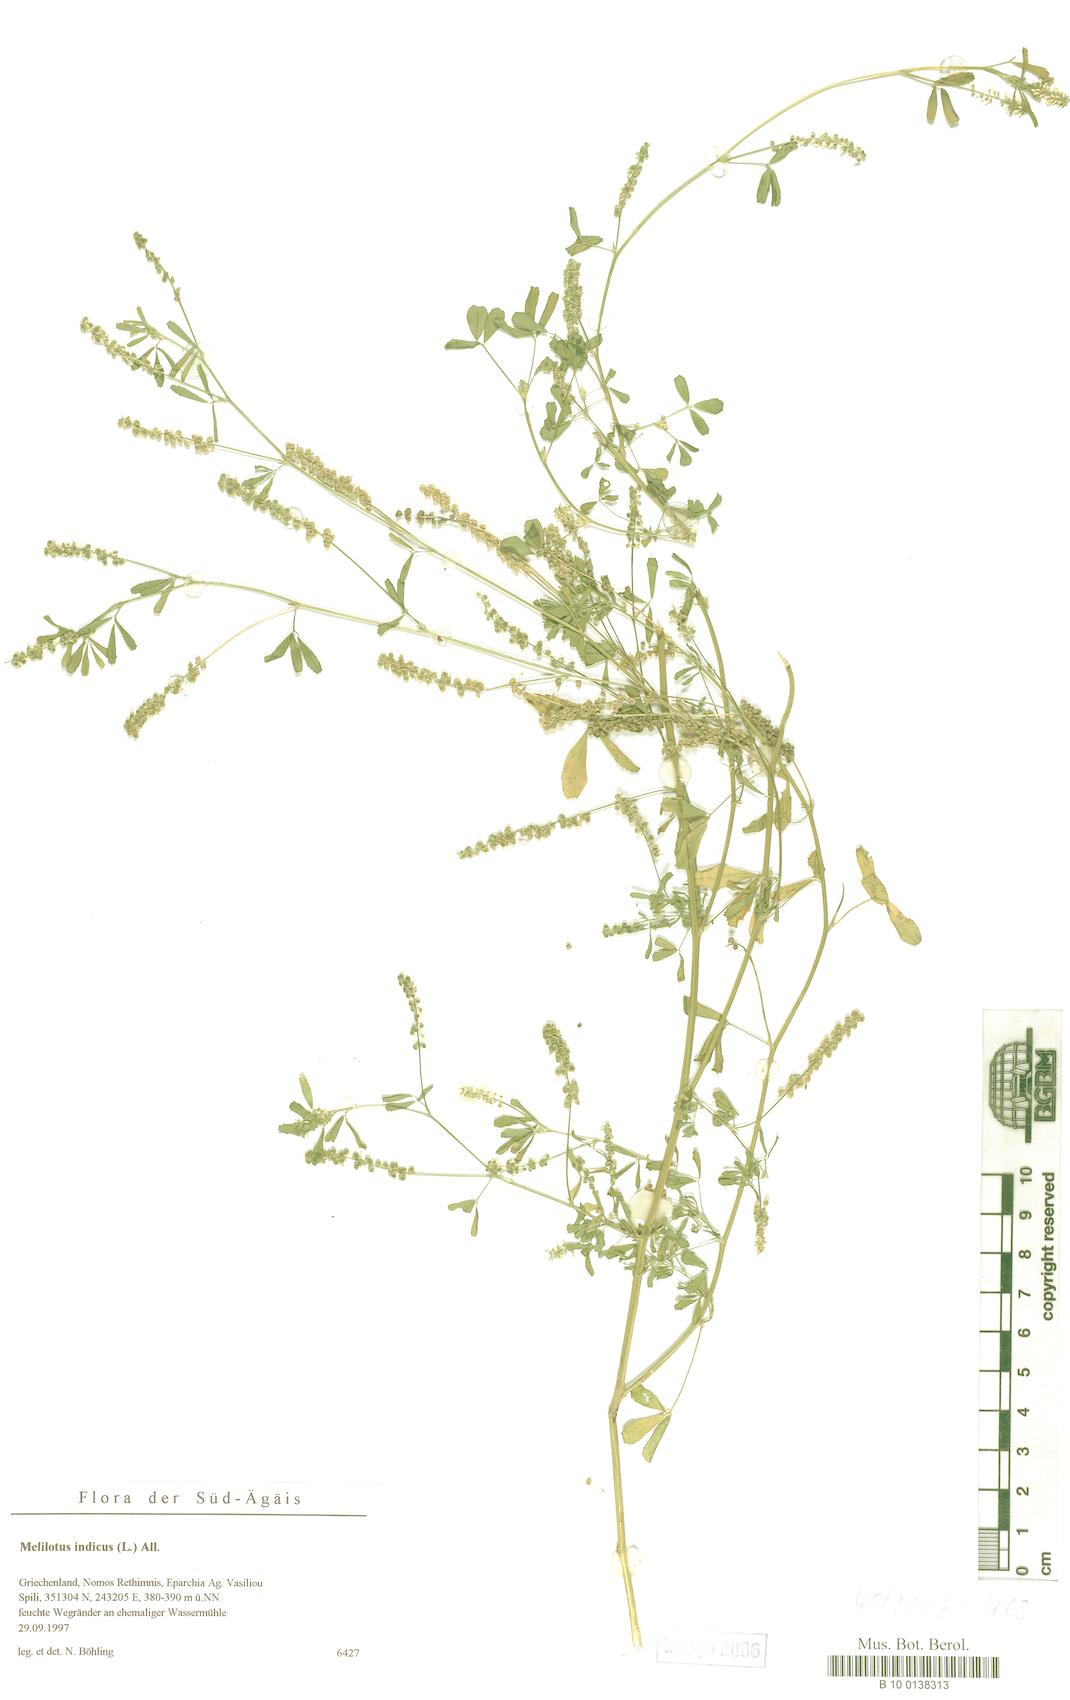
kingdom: Plantae
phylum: Tracheophyta
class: Magnoliopsida
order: Fabales
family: Fabaceae
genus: Melilotus
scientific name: Melilotus indicus
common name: Small melilot
